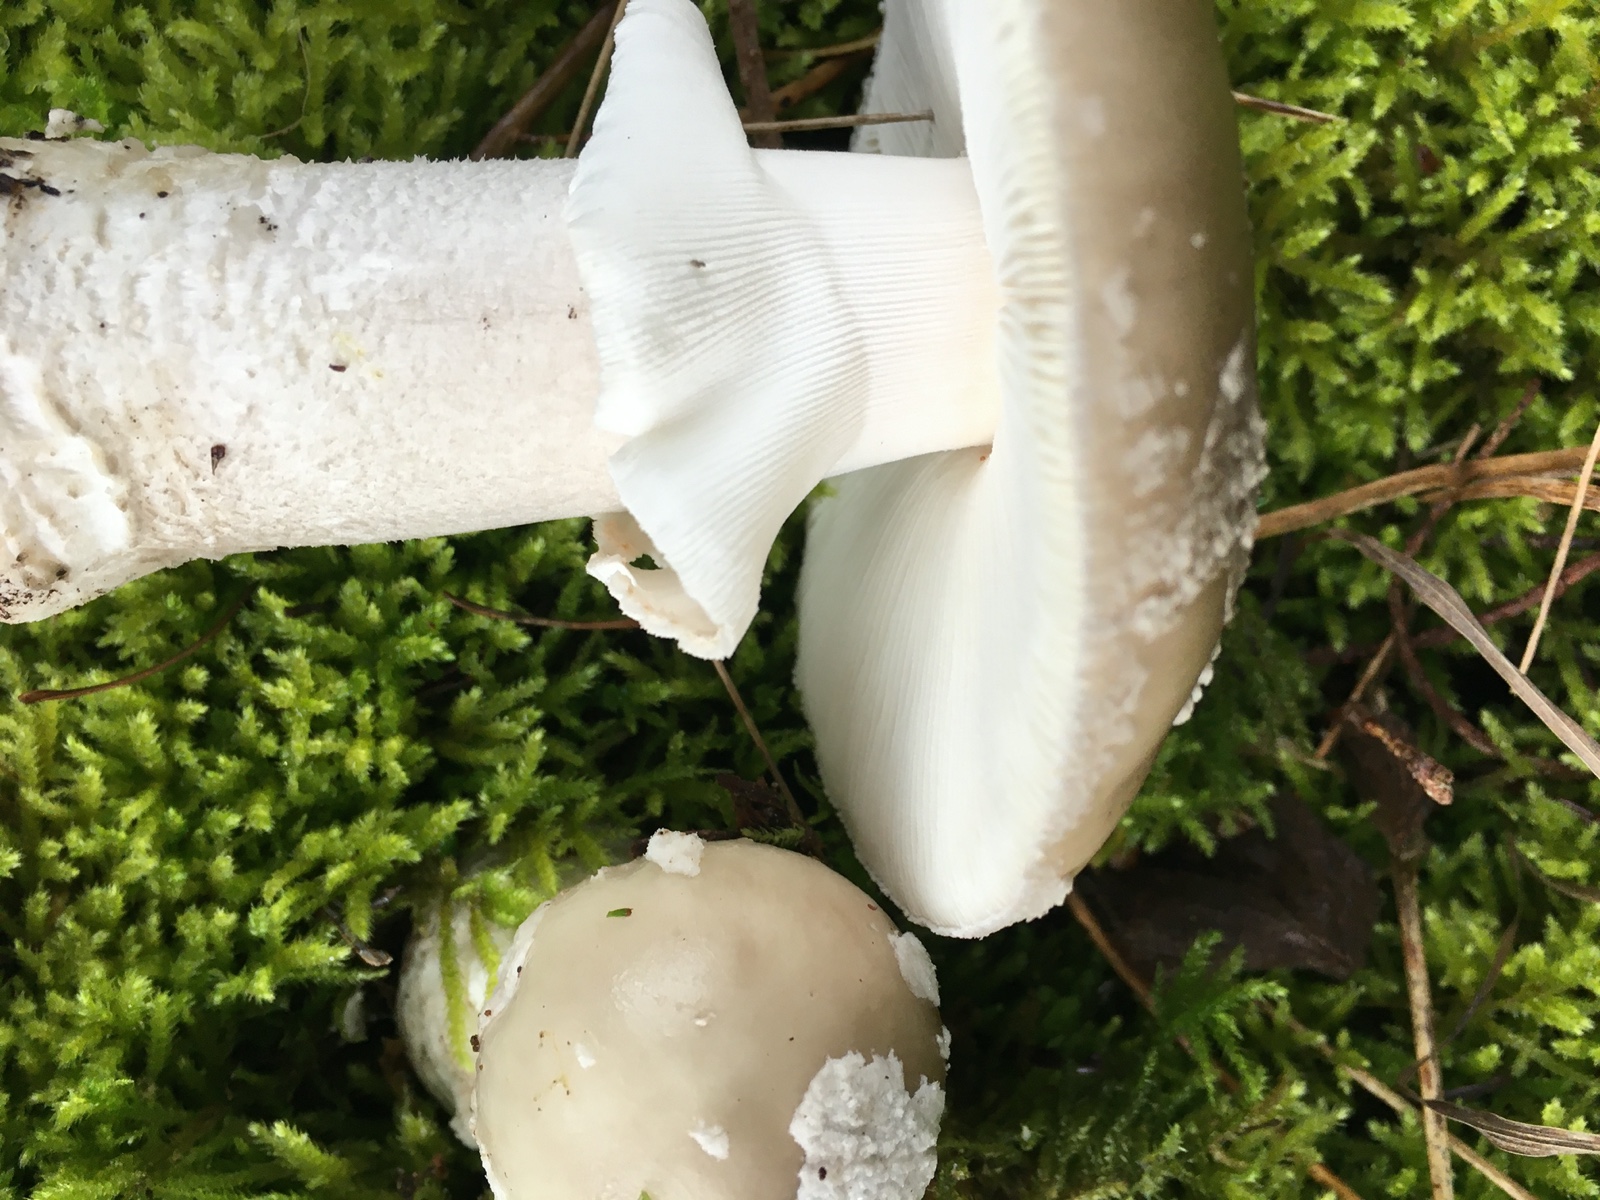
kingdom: Fungi
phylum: Basidiomycota
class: Agaricomycetes
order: Agaricales
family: Amanitaceae
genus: Amanita
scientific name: Amanita
